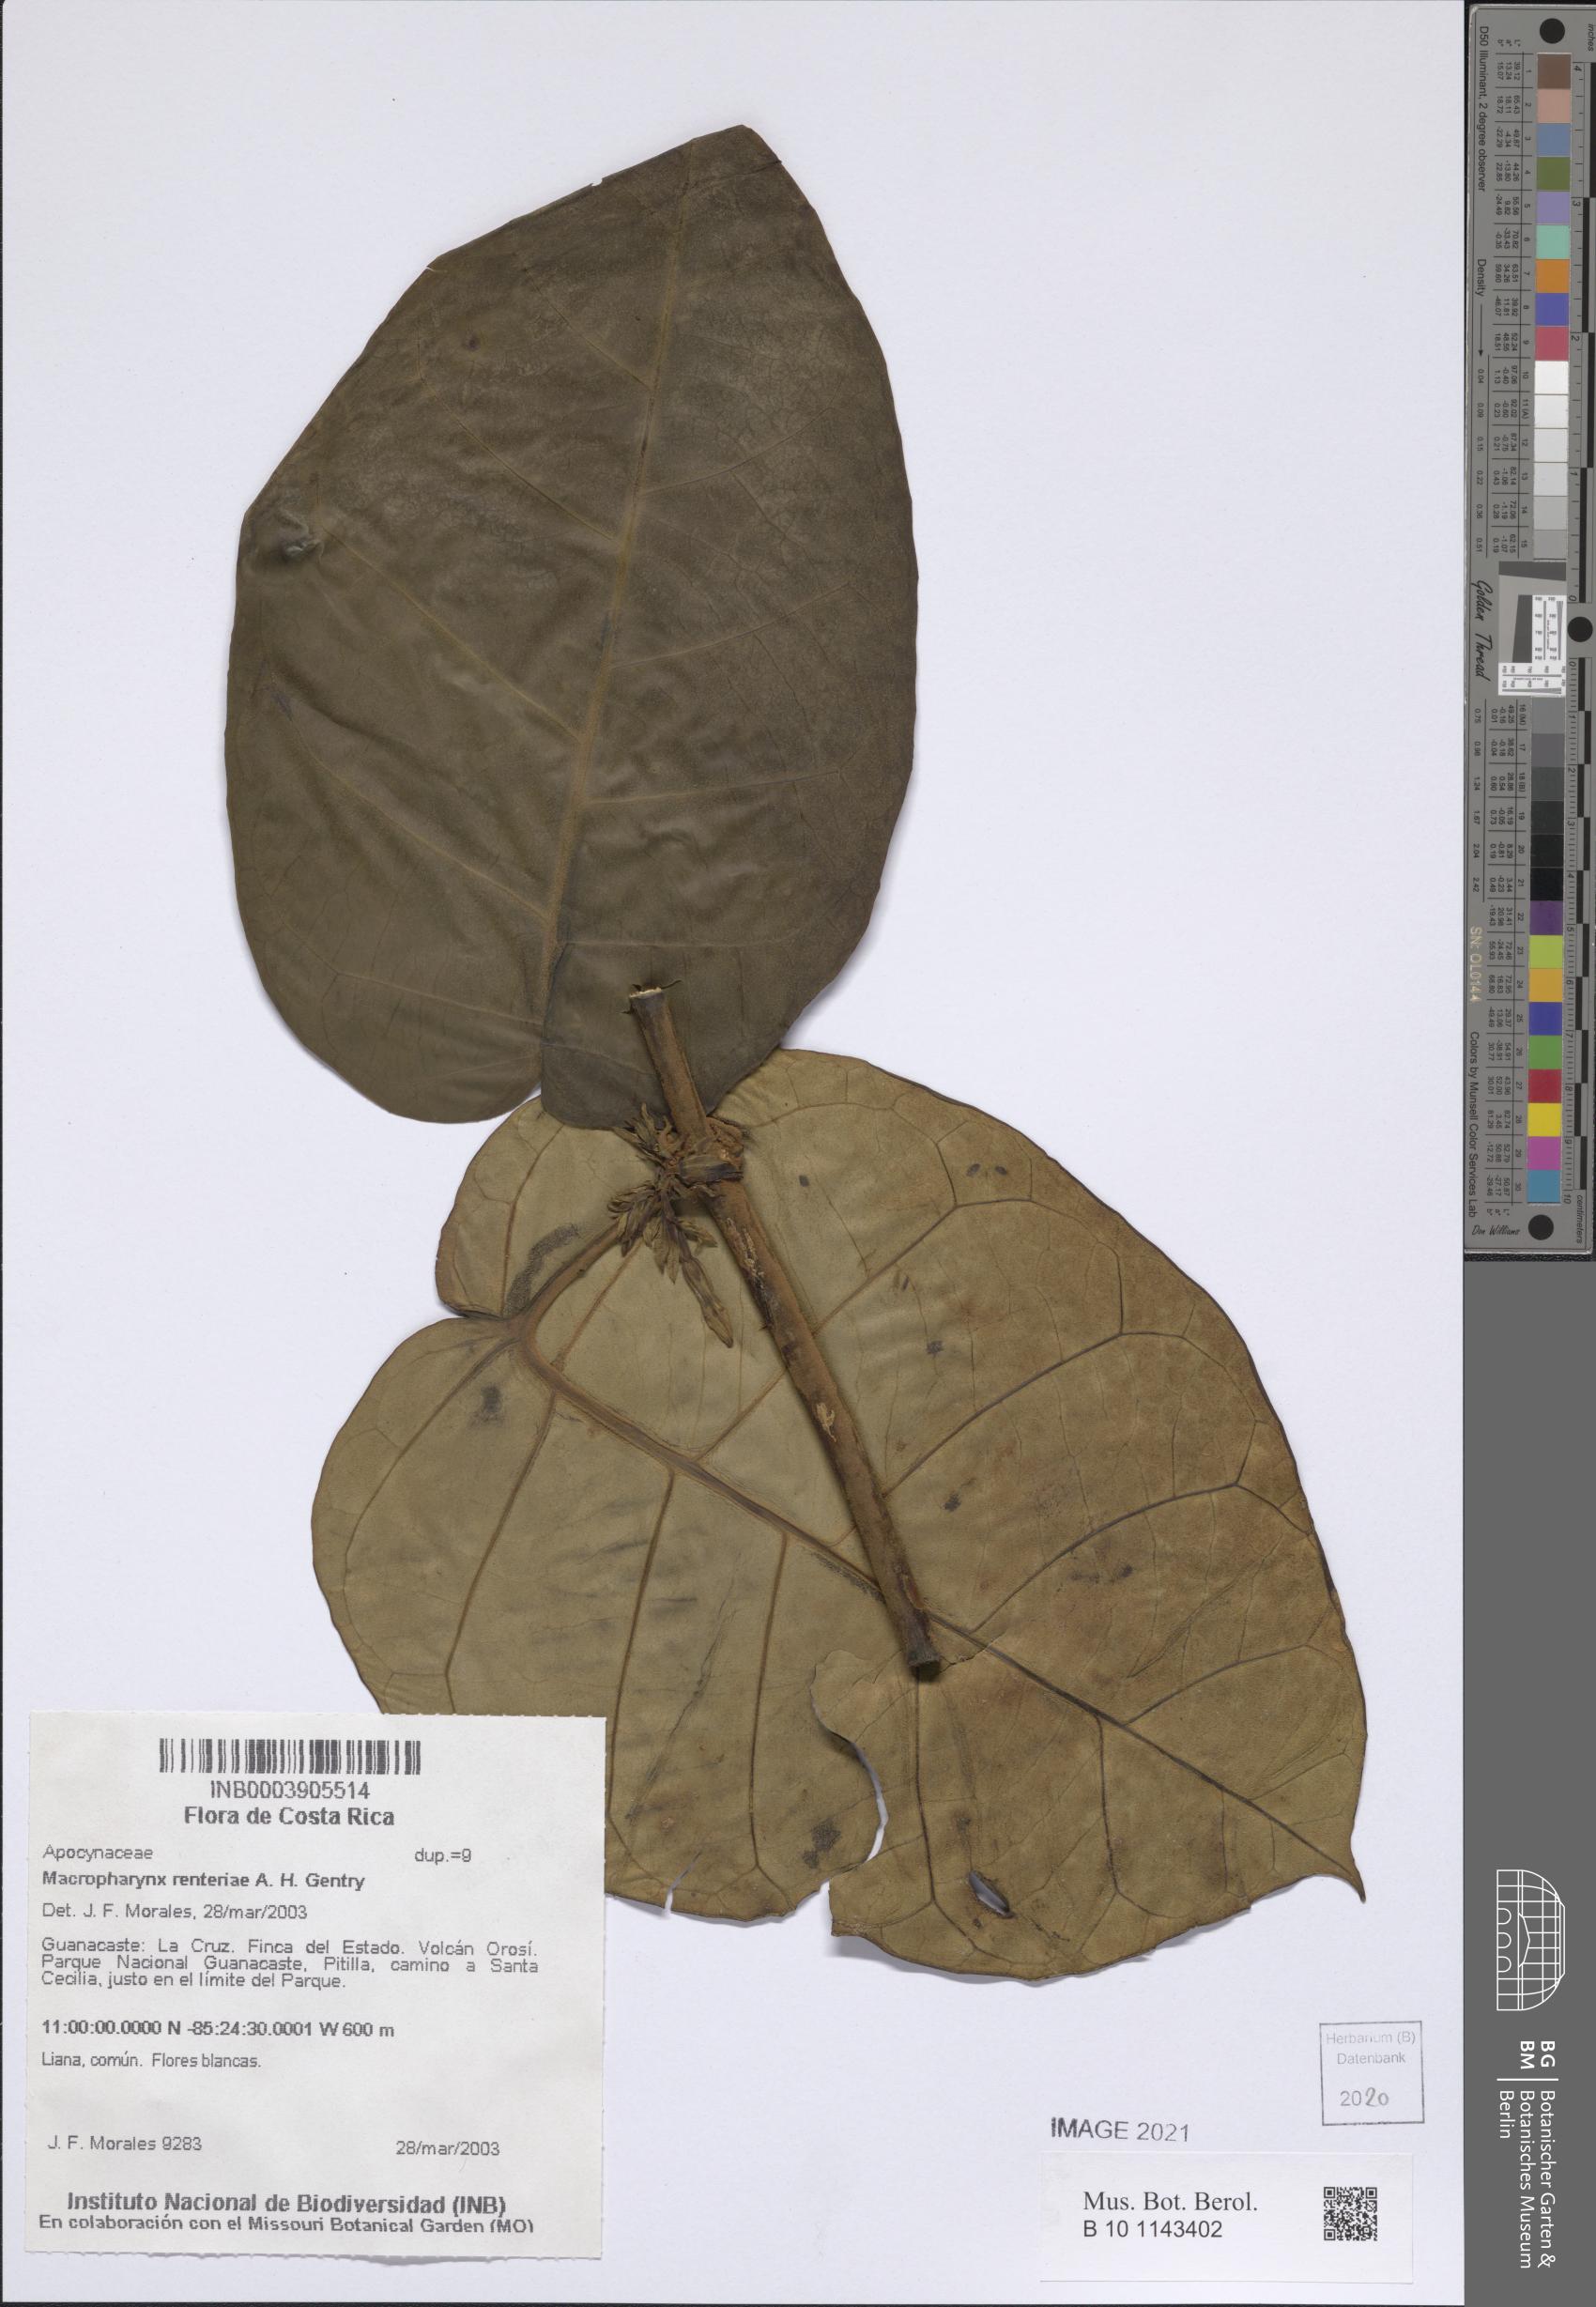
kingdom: Plantae
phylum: Tracheophyta
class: Magnoliopsida
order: Gentianales
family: Apocynaceae
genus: Macropharynx
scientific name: Macropharynx renteriae
